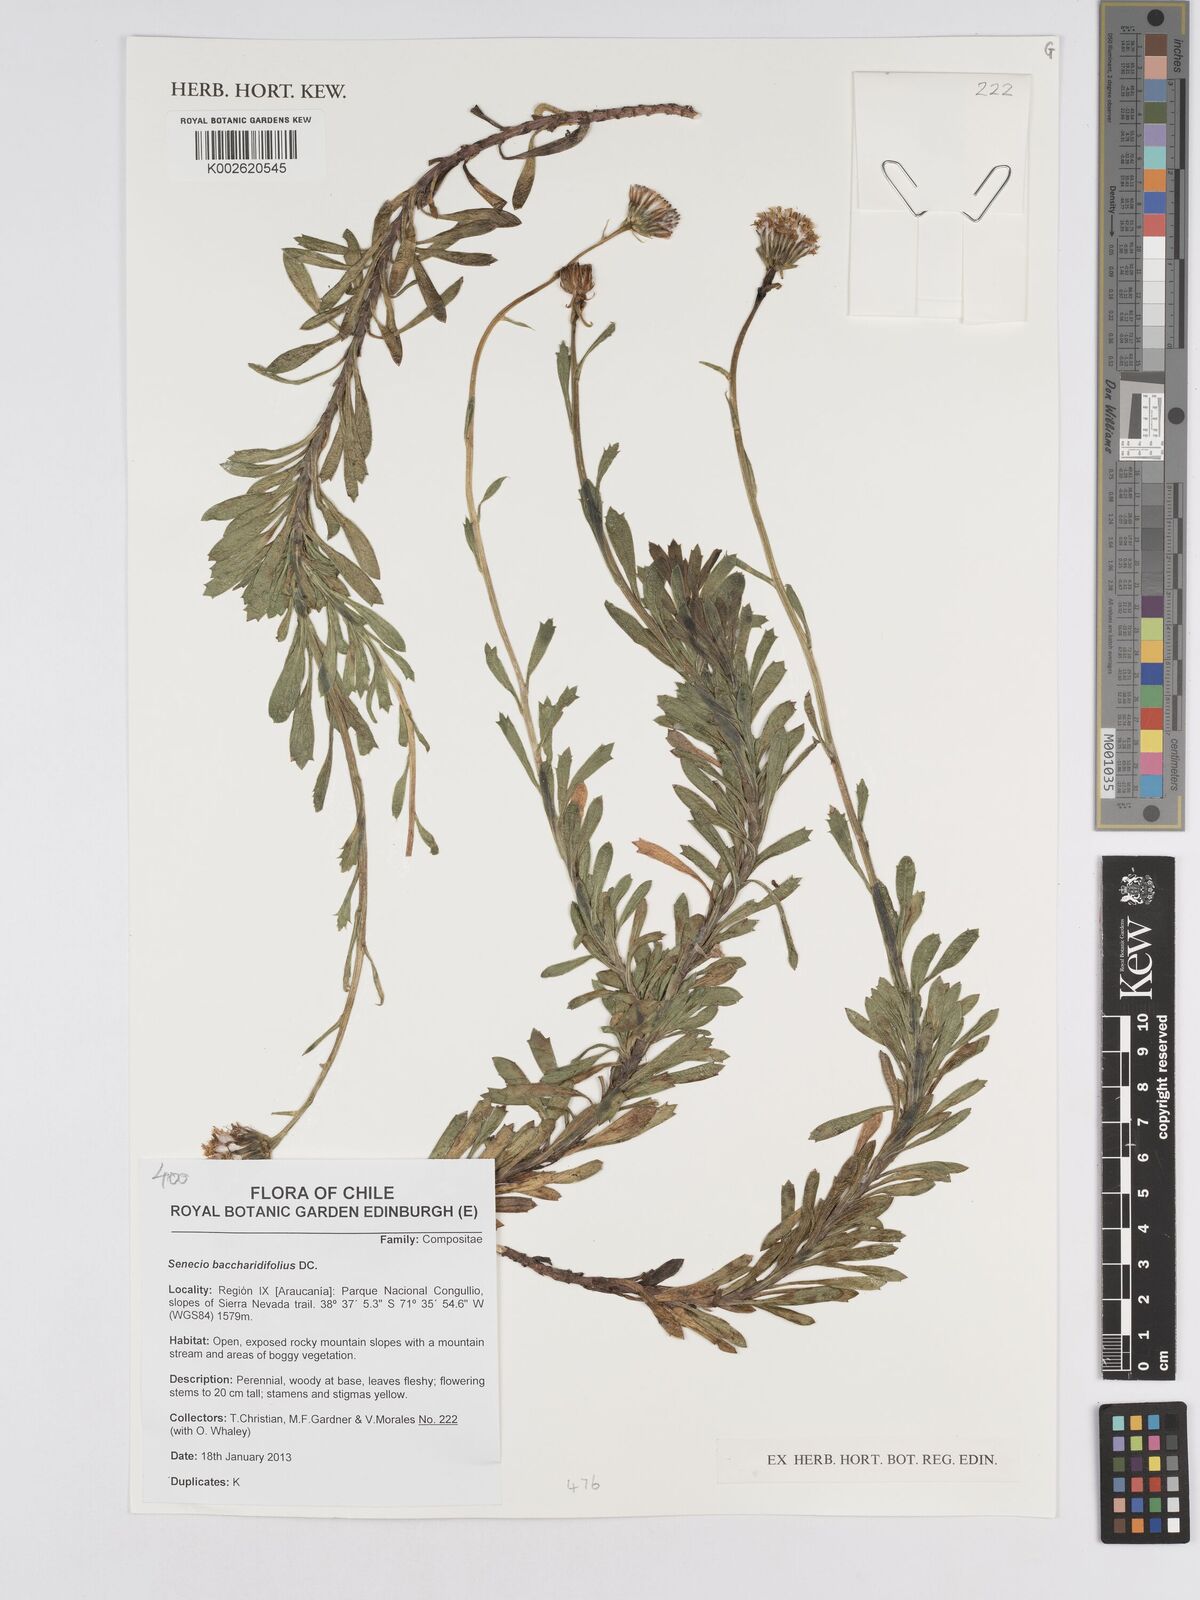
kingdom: Plantae
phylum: Tracheophyta
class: Magnoliopsida
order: Asterales
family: Asteraceae
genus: Senecio
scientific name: Senecio baccharidifolius
